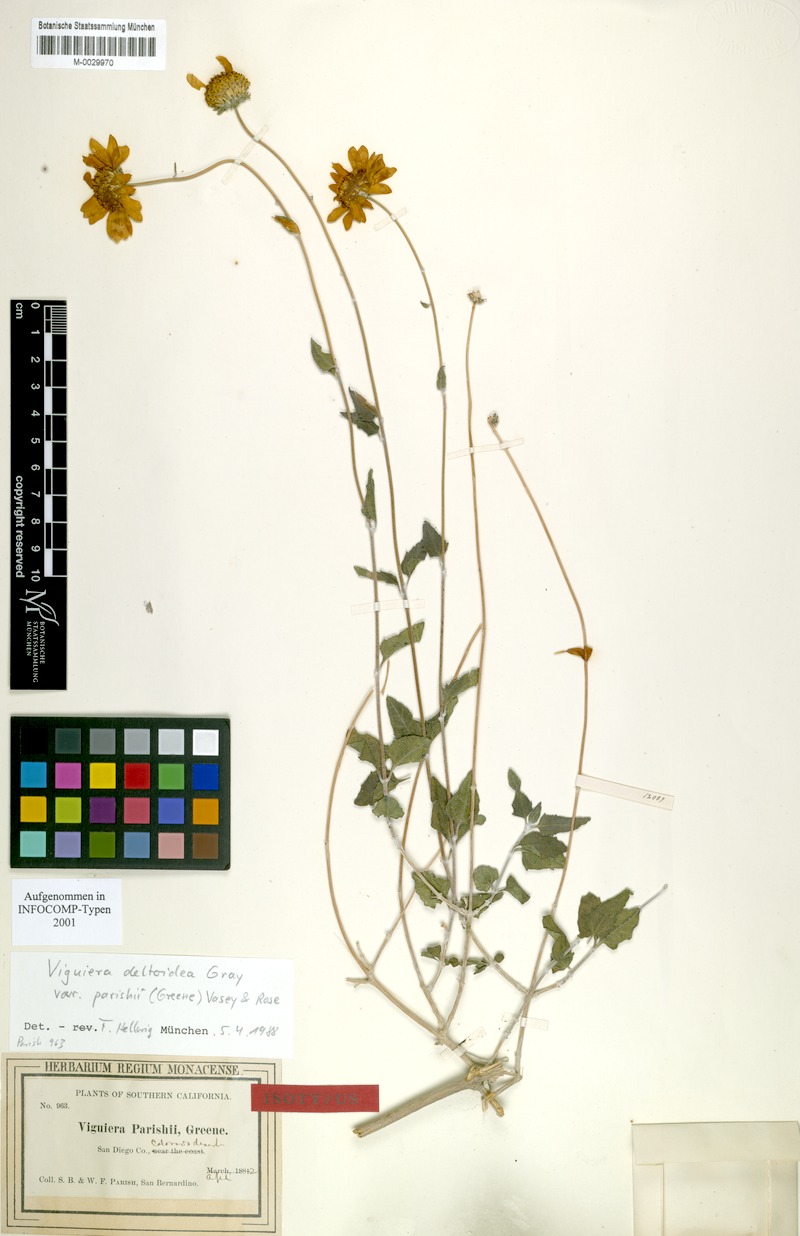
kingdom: Plantae
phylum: Tracheophyta
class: Magnoliopsida
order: Asterales
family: Asteraceae
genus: Bahiopsis
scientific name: Bahiopsis parishii
